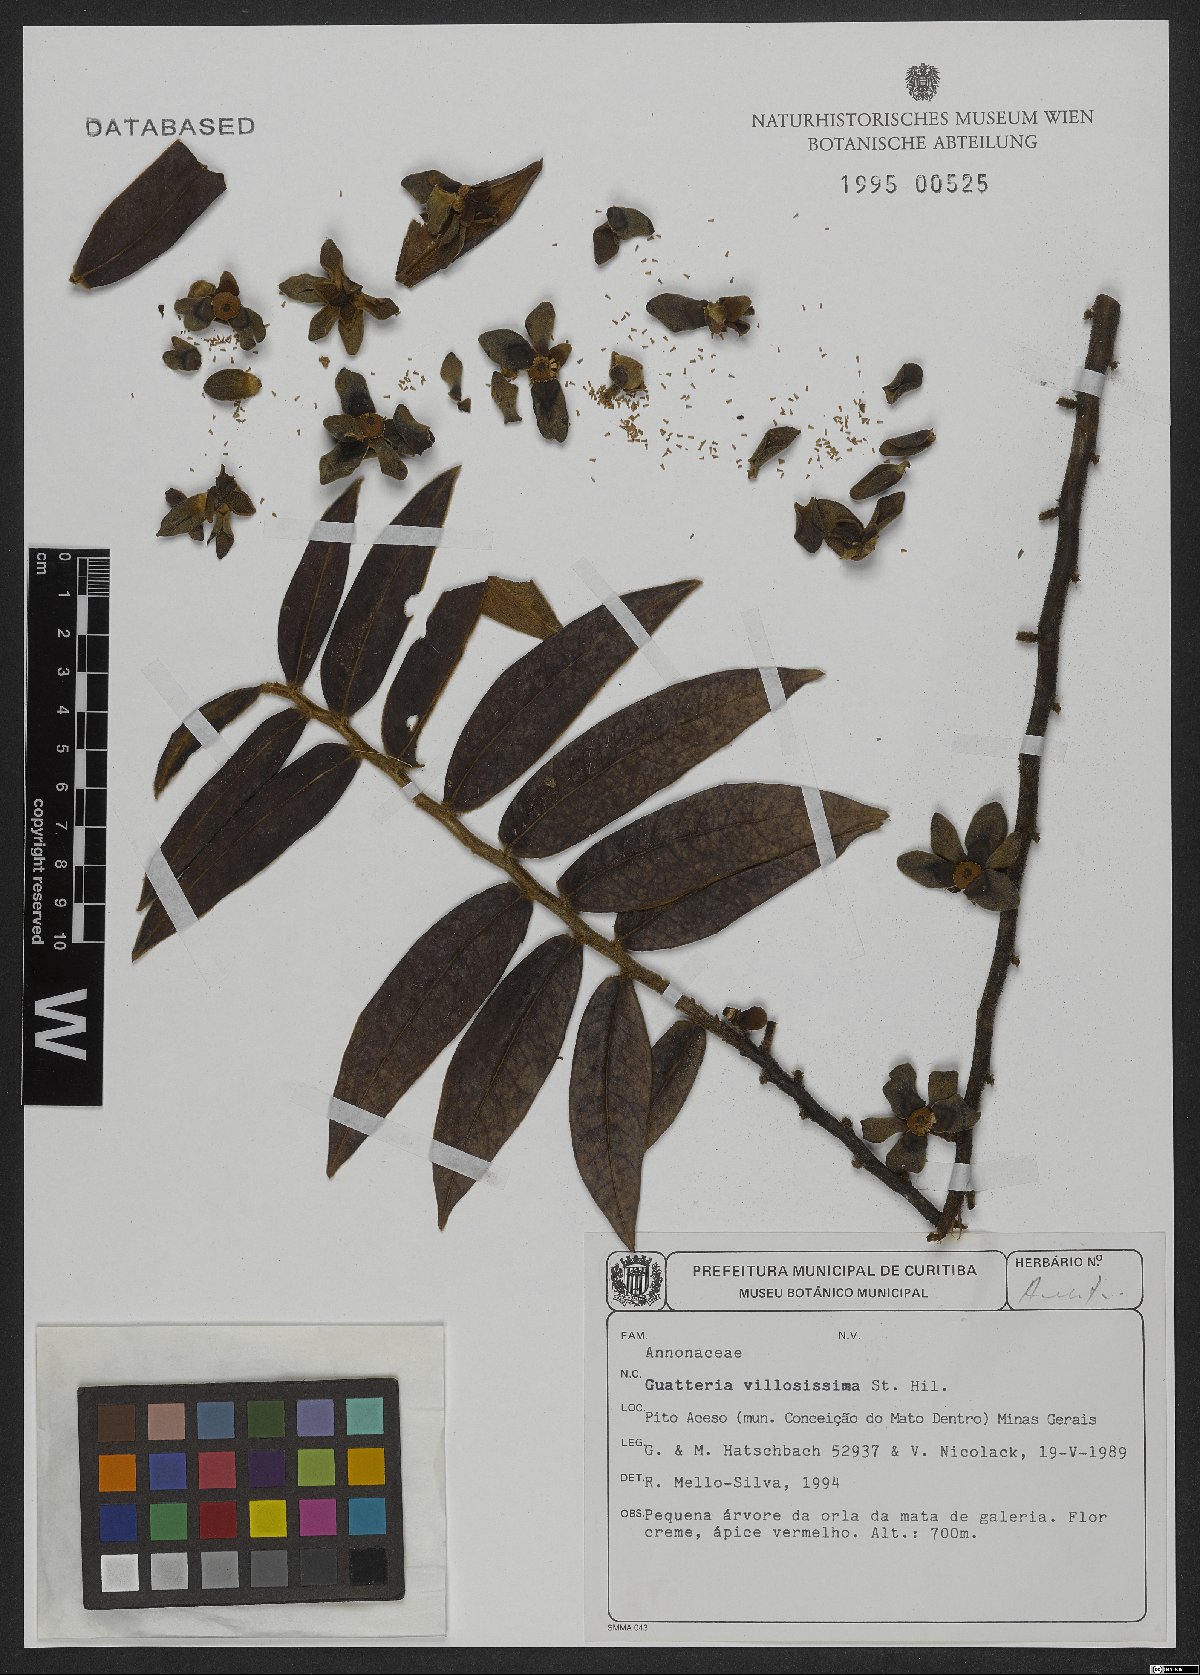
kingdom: Plantae
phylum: Tracheophyta
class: Magnoliopsida
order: Magnoliales
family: Annonaceae
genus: Guatteria
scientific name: Guatteria villosissima
